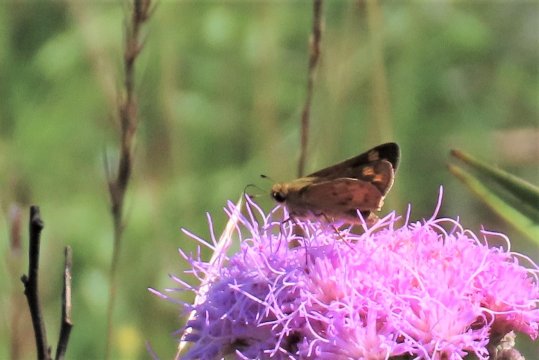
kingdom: Animalia
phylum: Arthropoda
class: Insecta
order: Lepidoptera
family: Hesperiidae
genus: Atalopedes
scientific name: Atalopedes campestris
